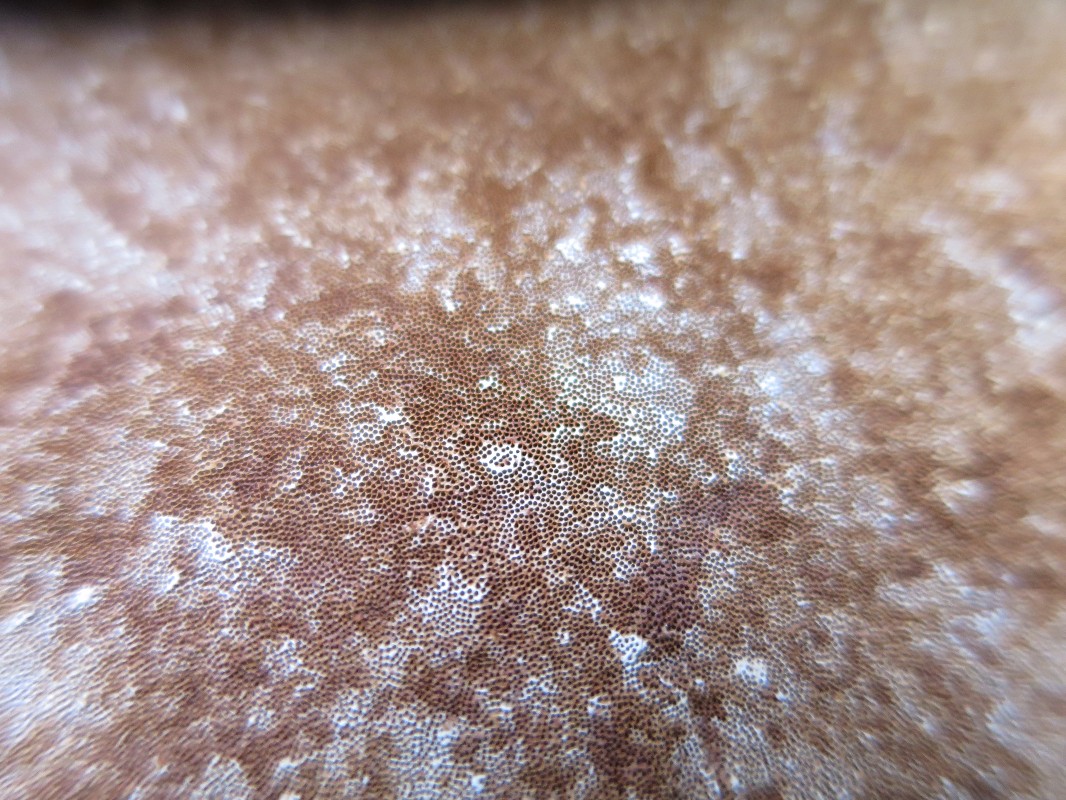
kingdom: Fungi
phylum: Basidiomycota
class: Agaricomycetes
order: Polyporales
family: Polyporaceae
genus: Ganoderma
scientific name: Ganoderma applanatum
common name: flad lakporesvamp
